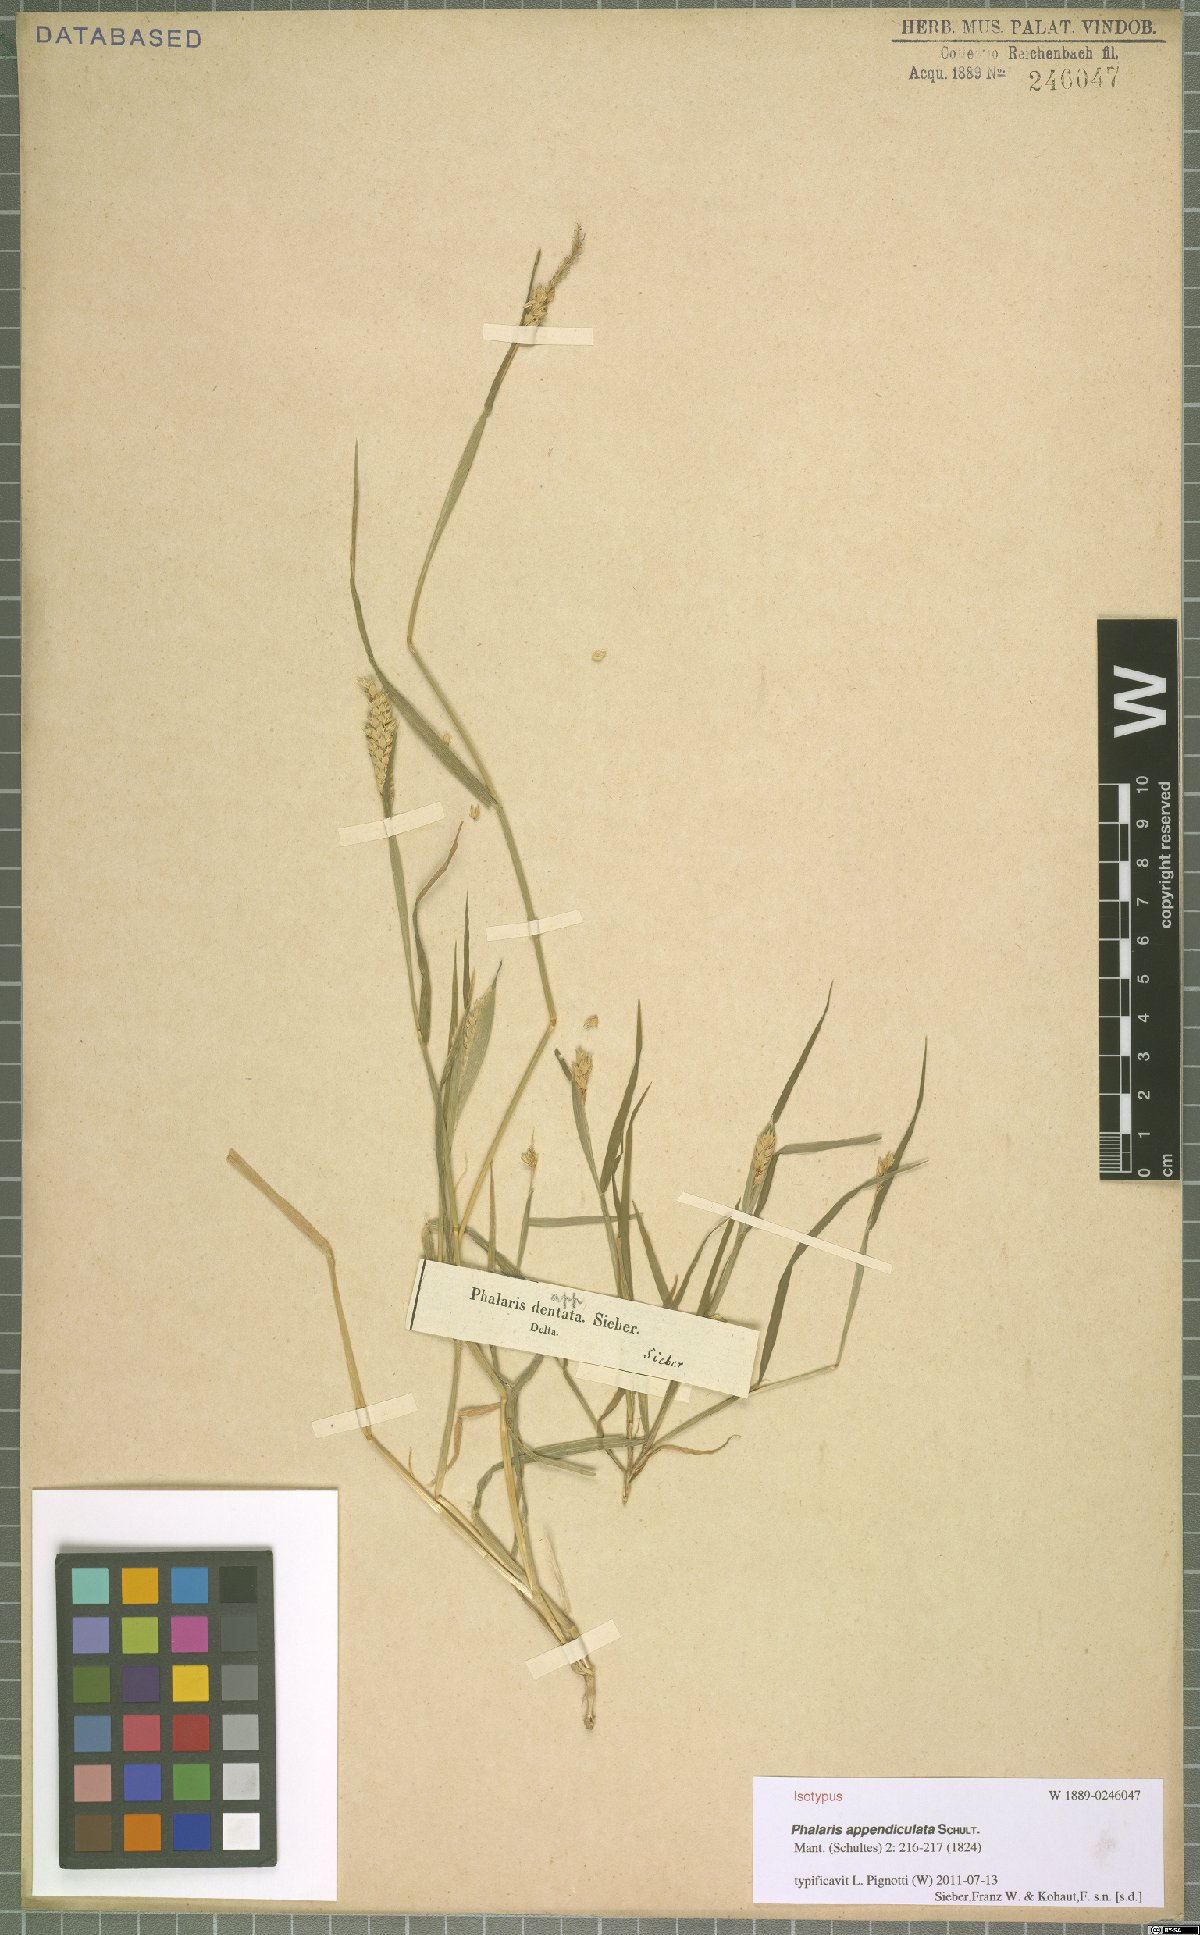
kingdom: Plantae
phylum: Tracheophyta
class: Liliopsida
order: Poales
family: Poaceae
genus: Phalaris
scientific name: Phalaris paradoxa
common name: Awned canary-grass
